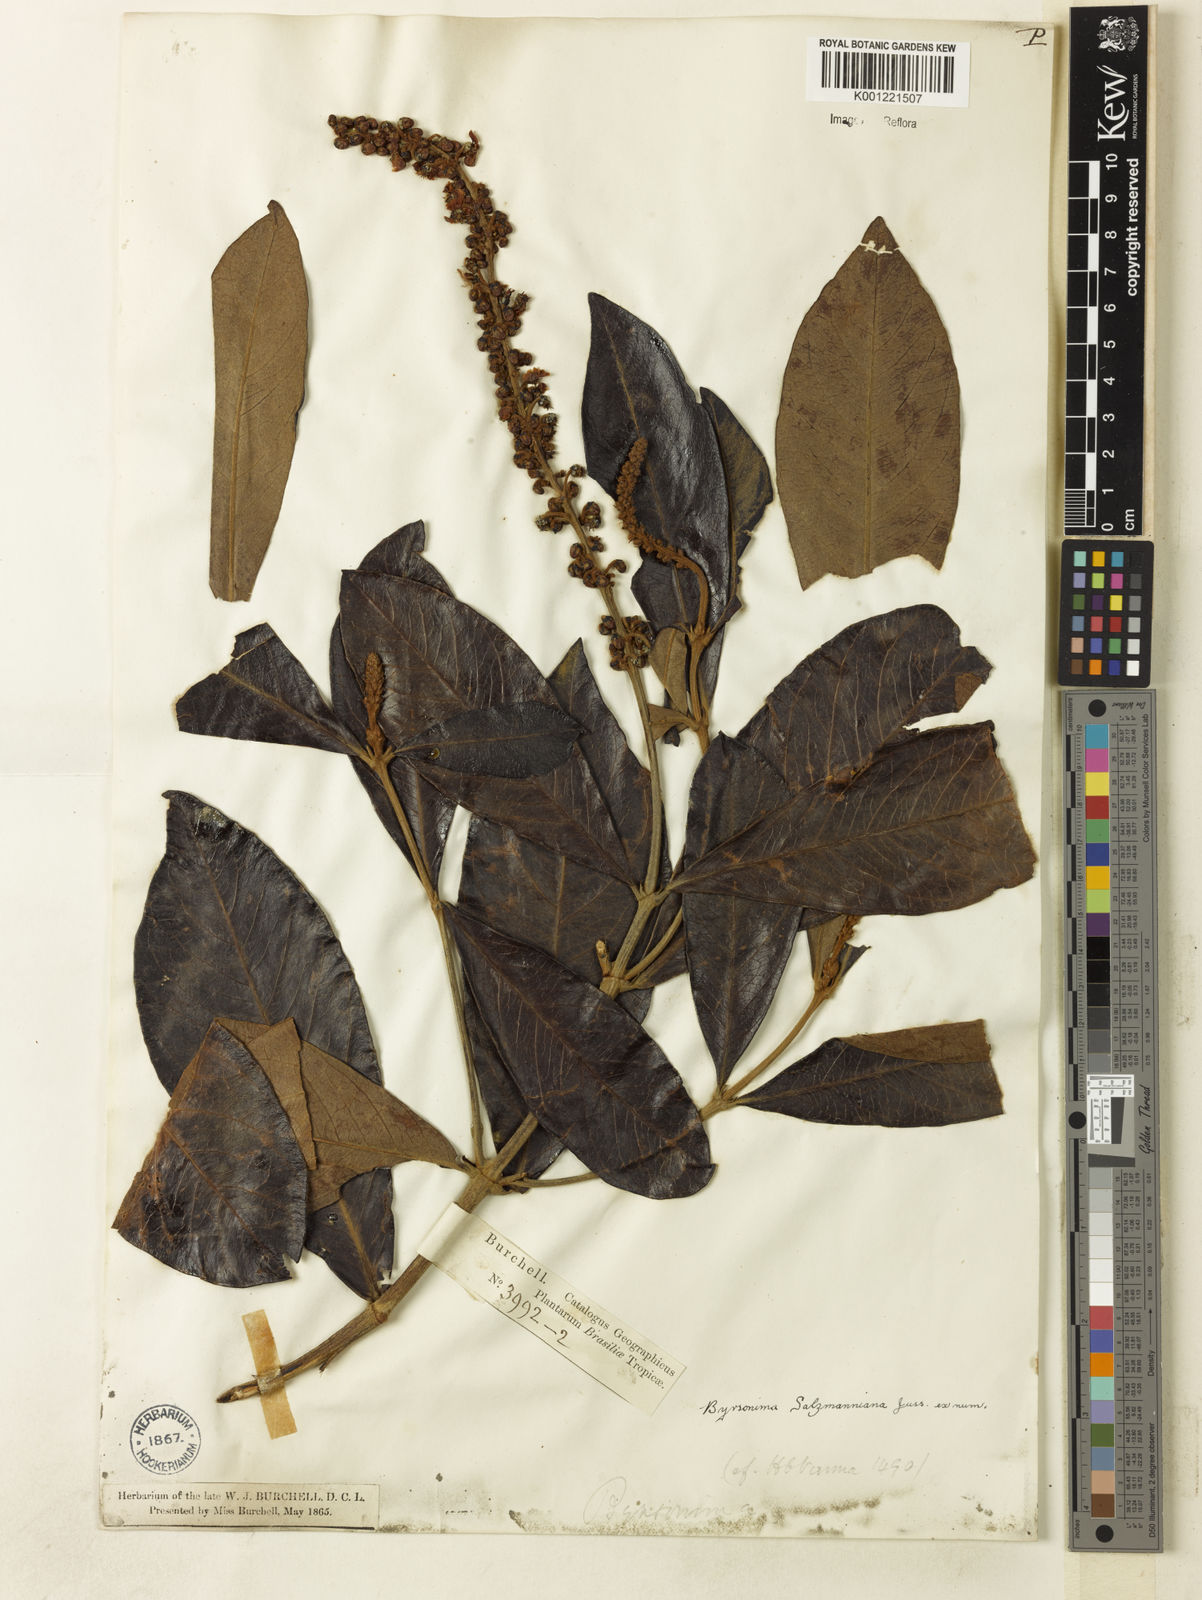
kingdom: Plantae
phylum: Tracheophyta
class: Magnoliopsida
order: Malpighiales
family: Malpighiaceae
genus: Byrsonima
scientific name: Byrsonima salzmanniana
